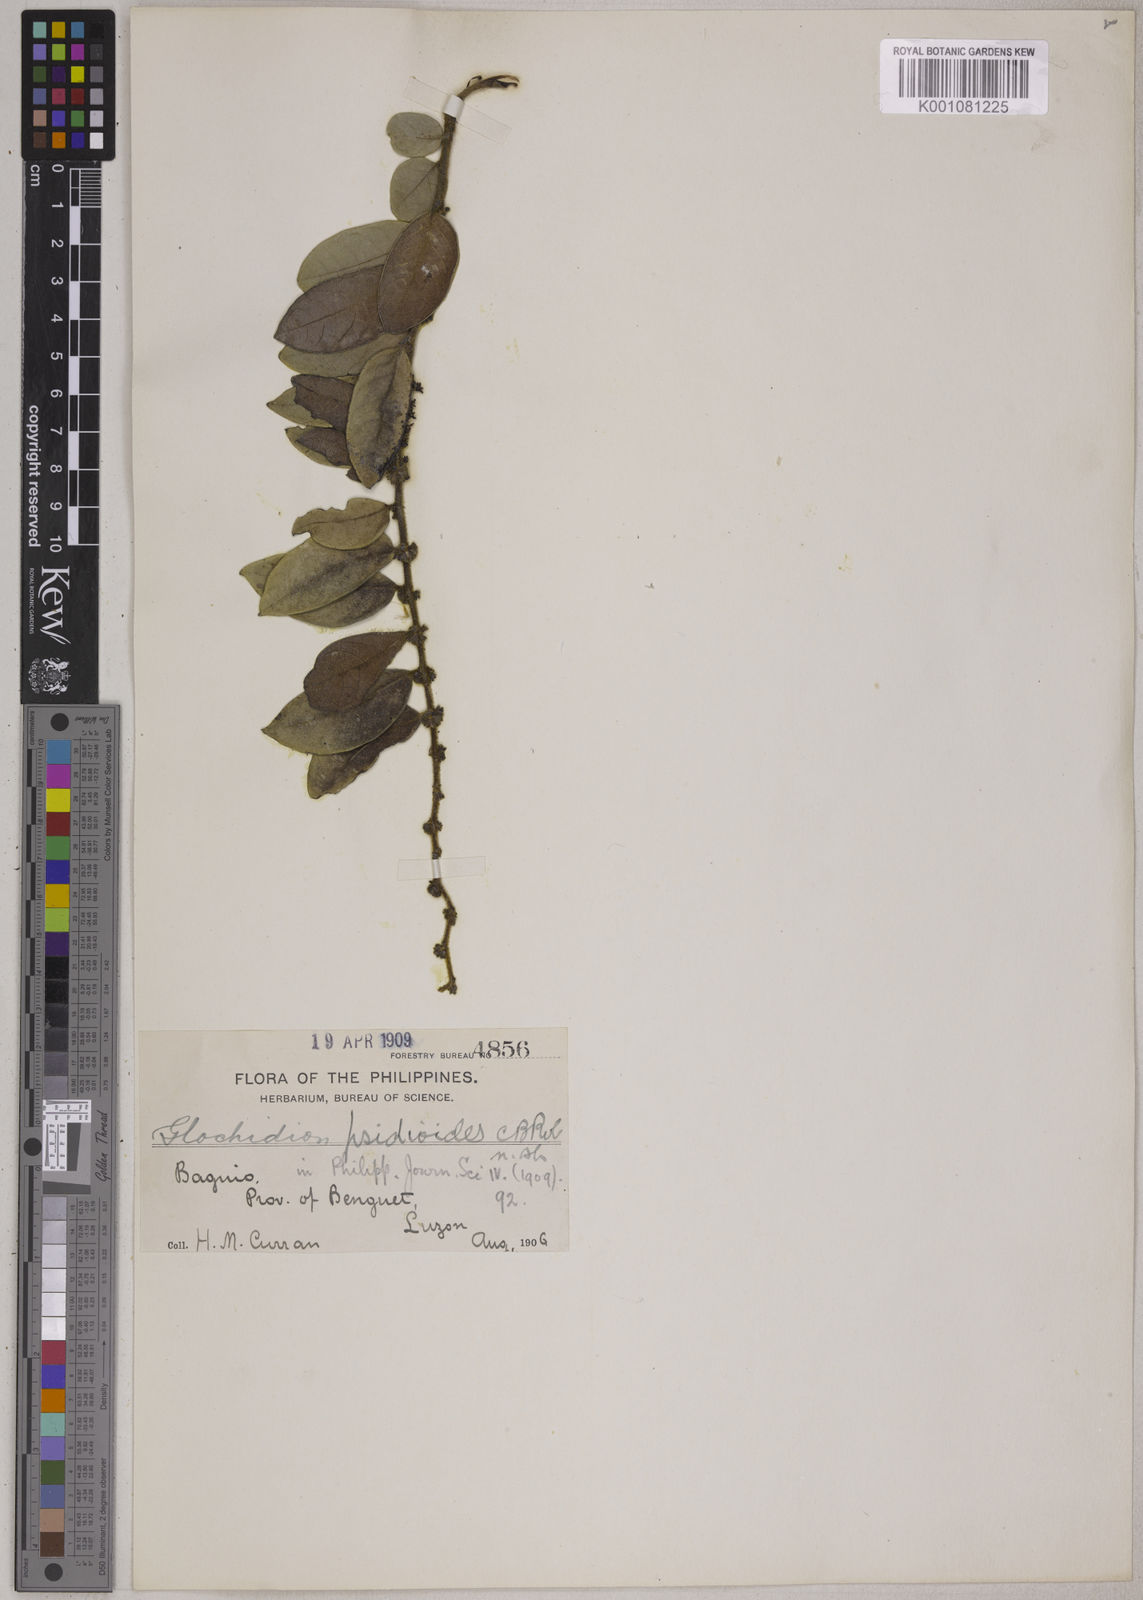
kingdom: Plantae
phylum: Tracheophyta
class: Magnoliopsida
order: Malpighiales
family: Phyllanthaceae
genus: Glochidion
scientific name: Glochidion psidioides
